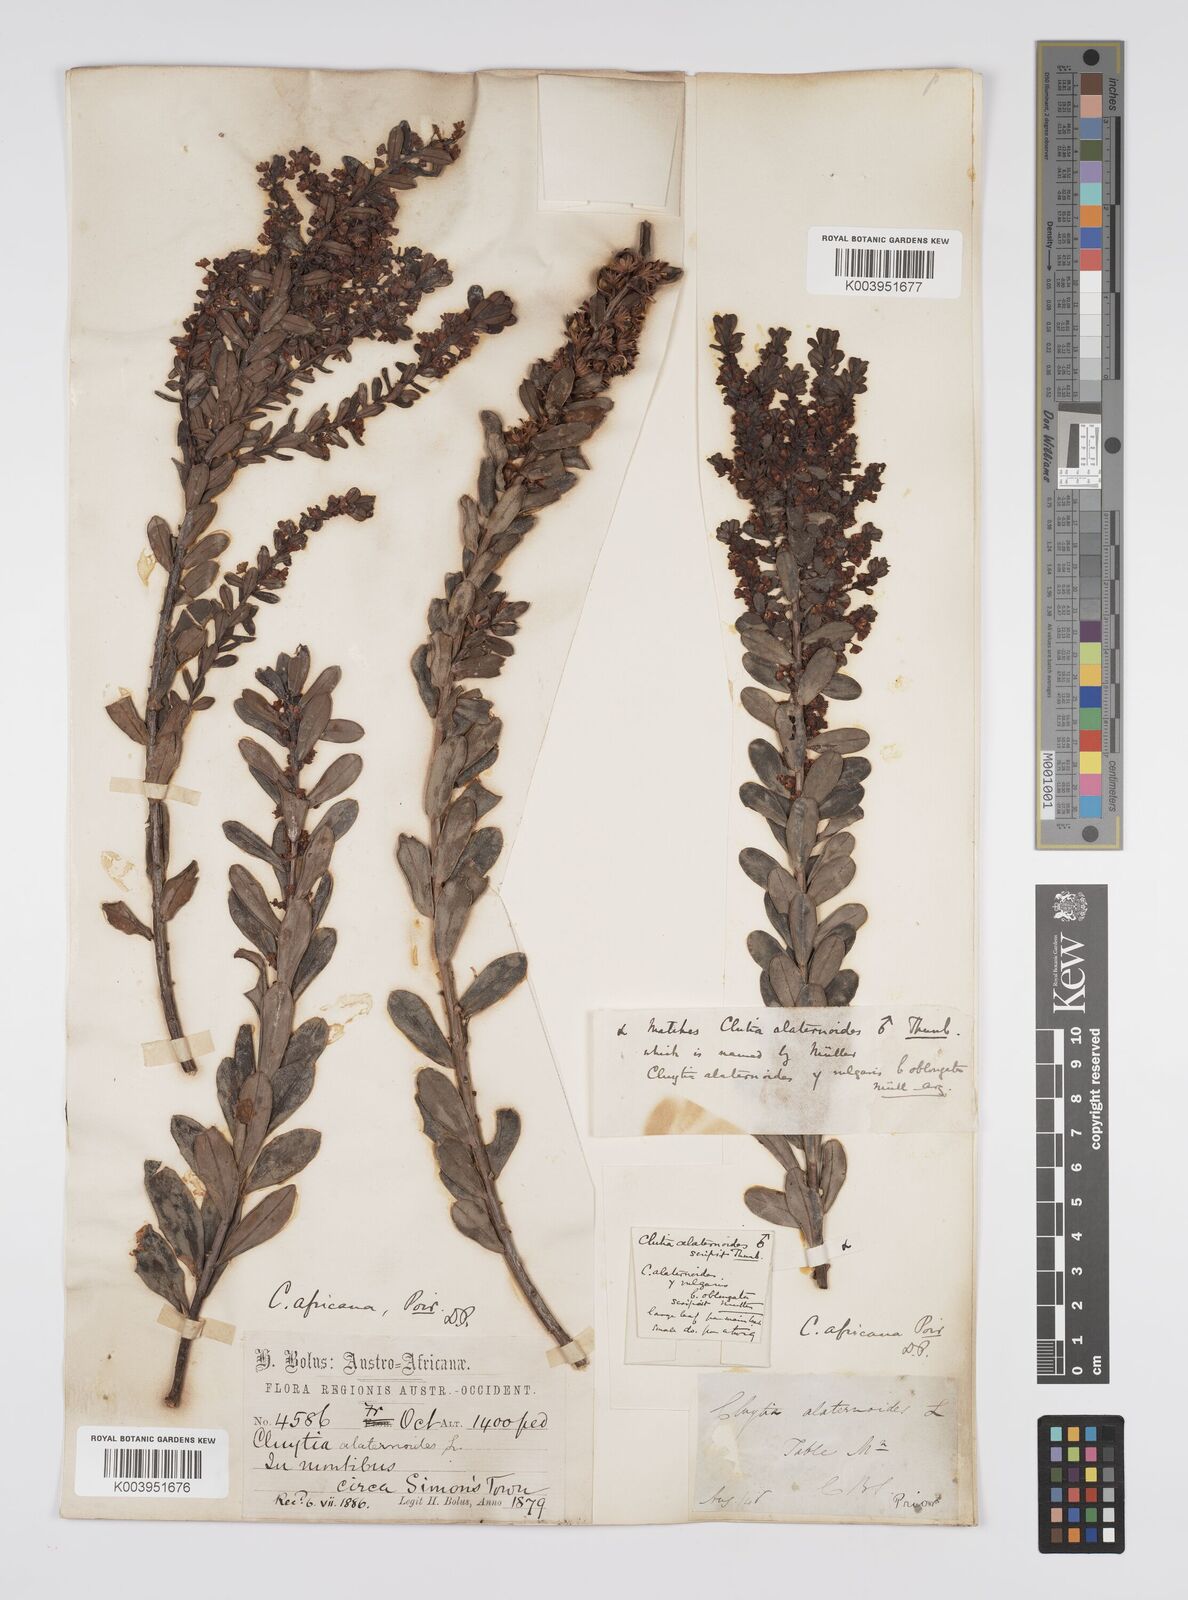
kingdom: Plantae
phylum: Tracheophyta
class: Magnoliopsida
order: Malpighiales
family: Peraceae
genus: Clutia
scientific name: Clutia africana
